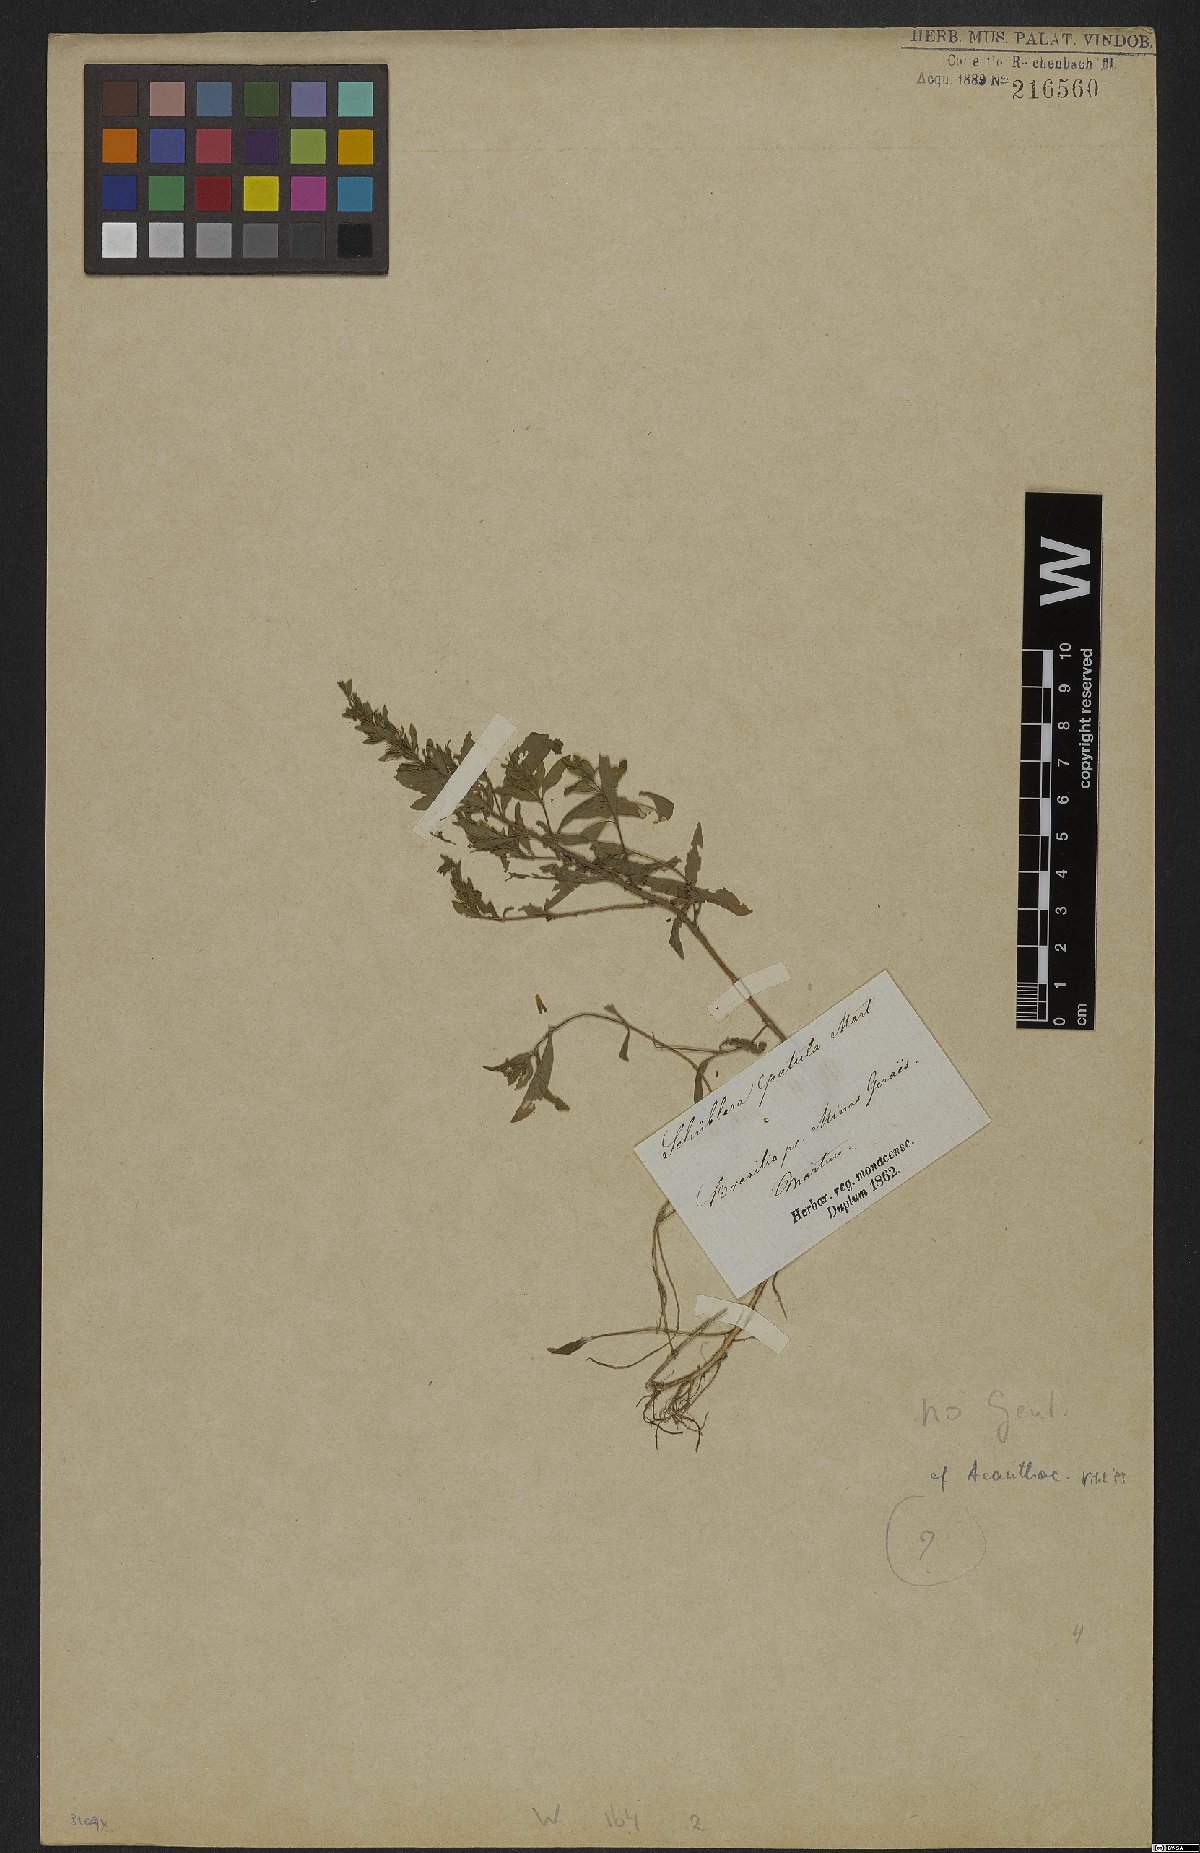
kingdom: Plantae
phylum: Tracheophyta
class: Magnoliopsida
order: Lamiales
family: Acanthaceae
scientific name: Acanthaceae
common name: Acanthaceae
